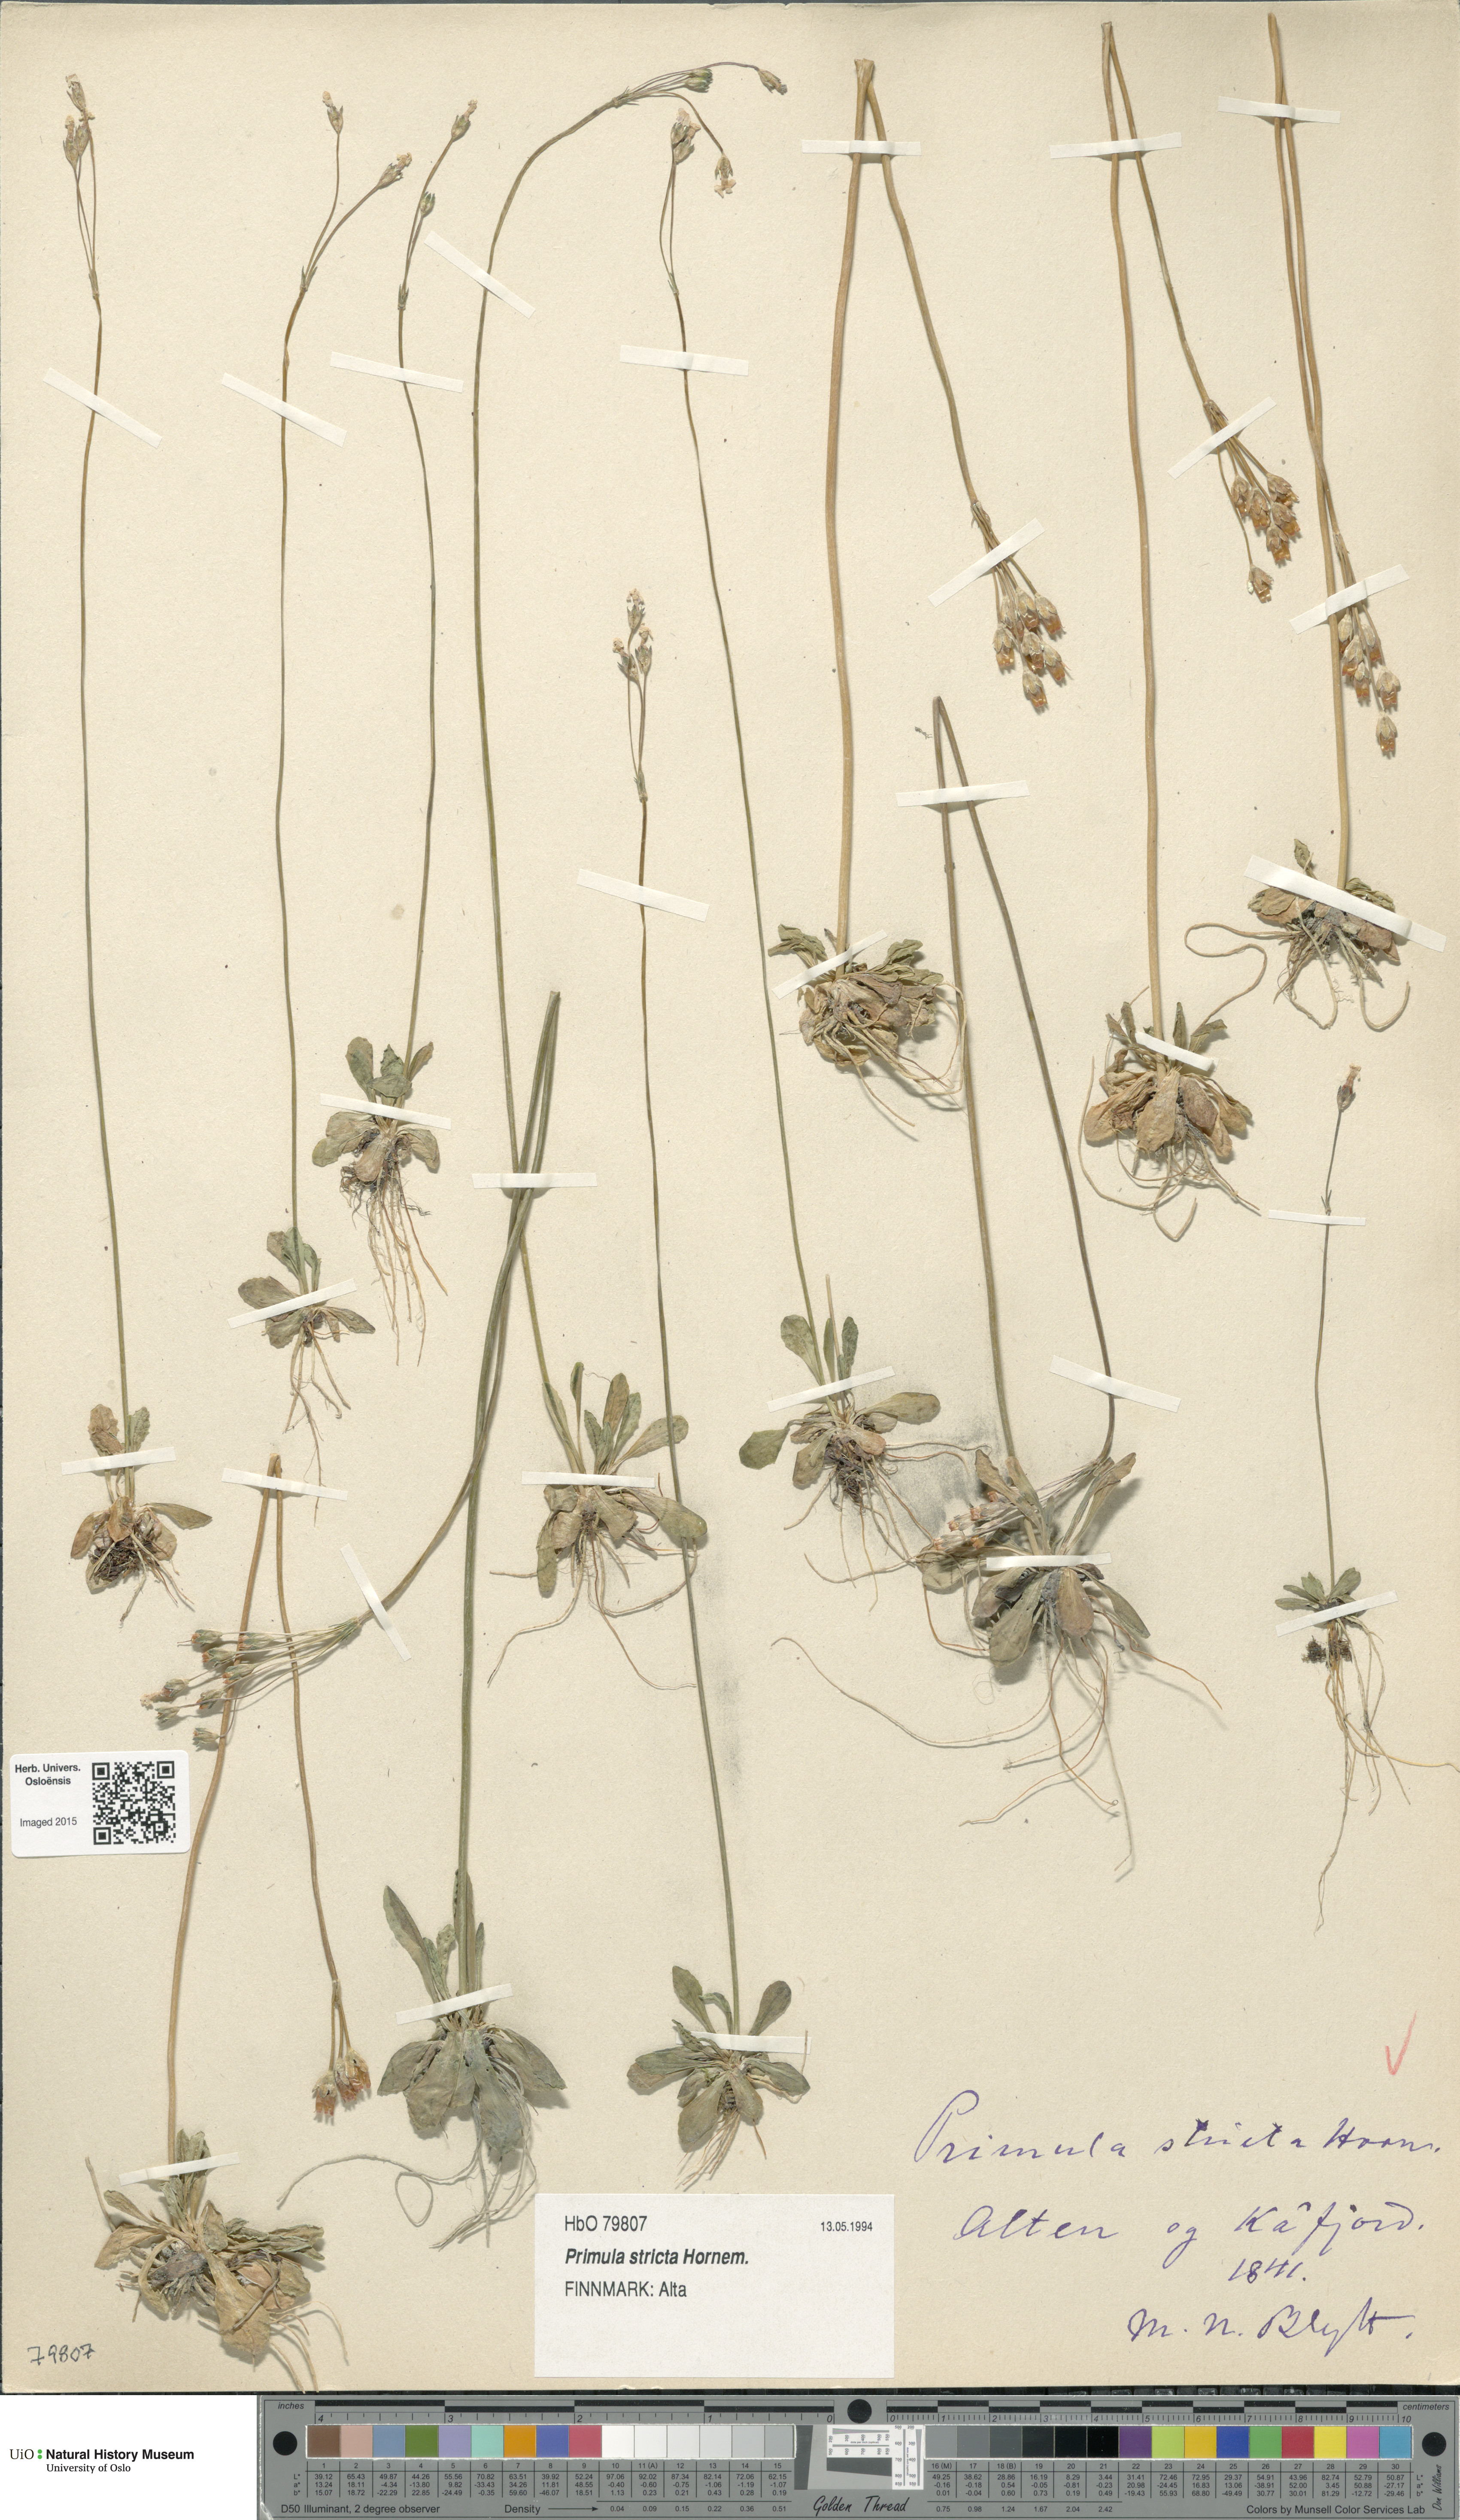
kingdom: Plantae
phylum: Tracheophyta
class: Magnoliopsida
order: Ericales
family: Primulaceae
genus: Primula
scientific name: Primula stricta
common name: Coastal primrose
